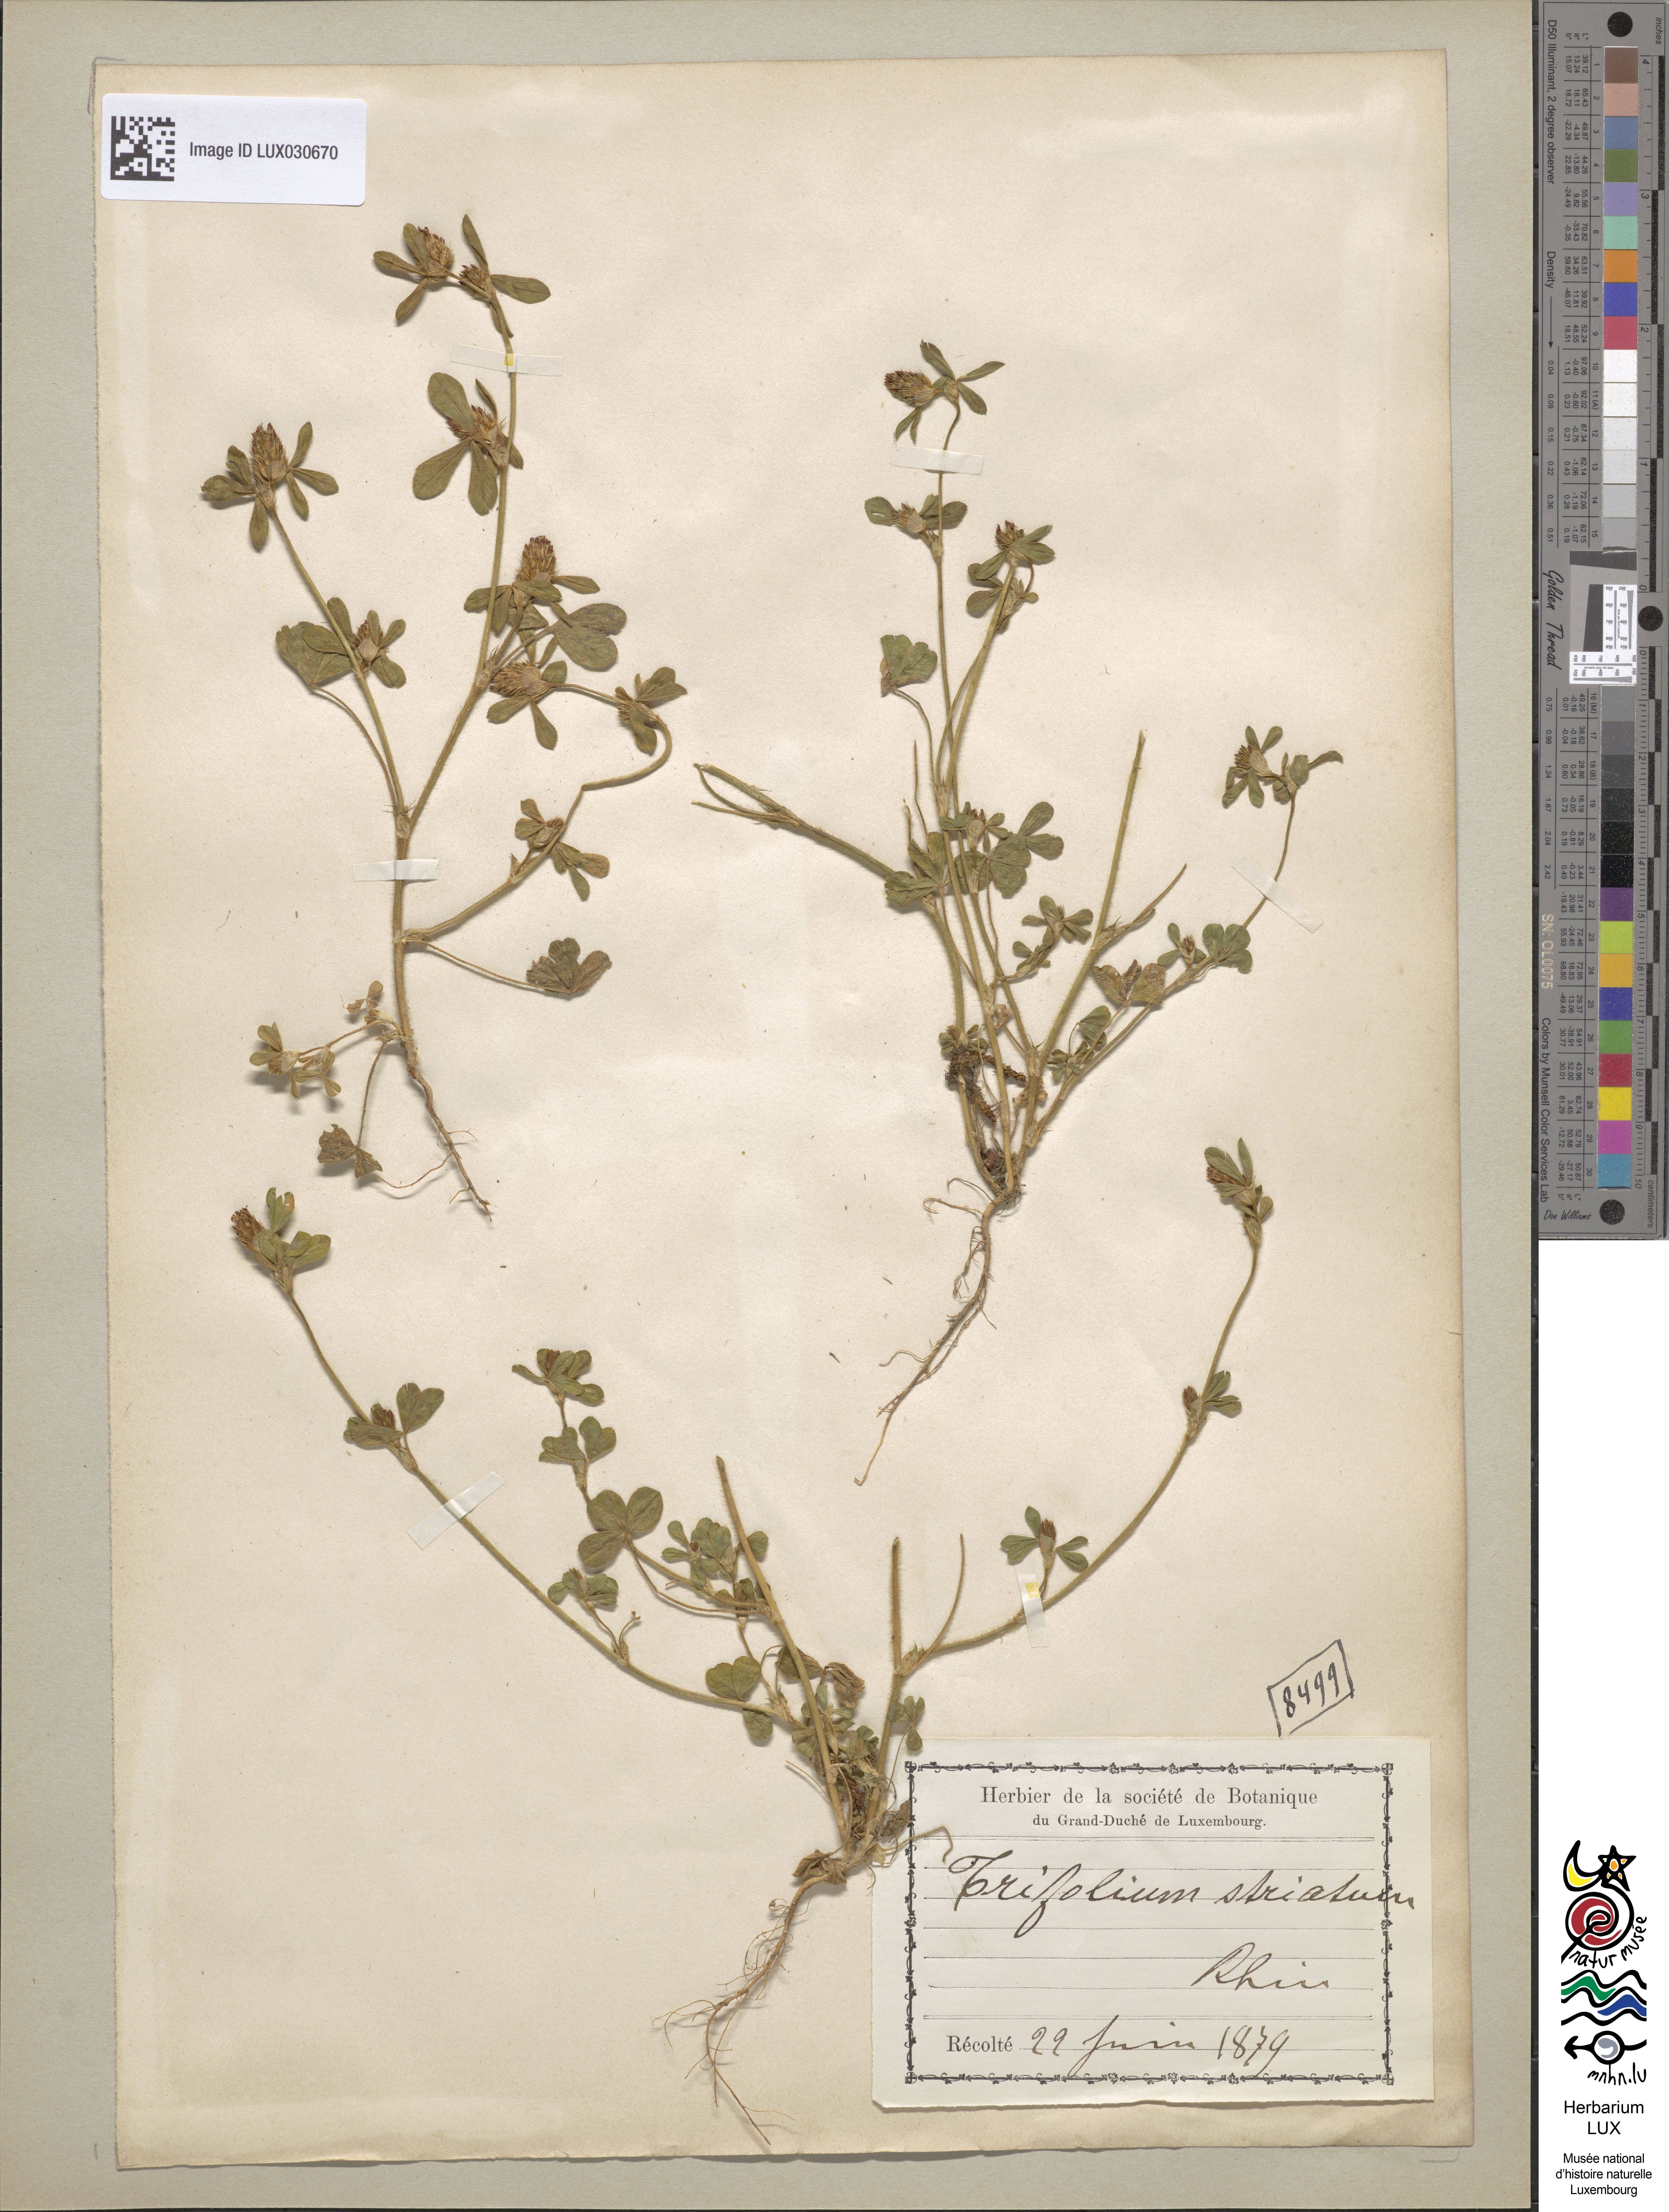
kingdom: Plantae
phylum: Tracheophyta
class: Magnoliopsida
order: Fabales
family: Fabaceae
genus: Trifolium
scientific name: Trifolium striatum
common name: Knotted clover
